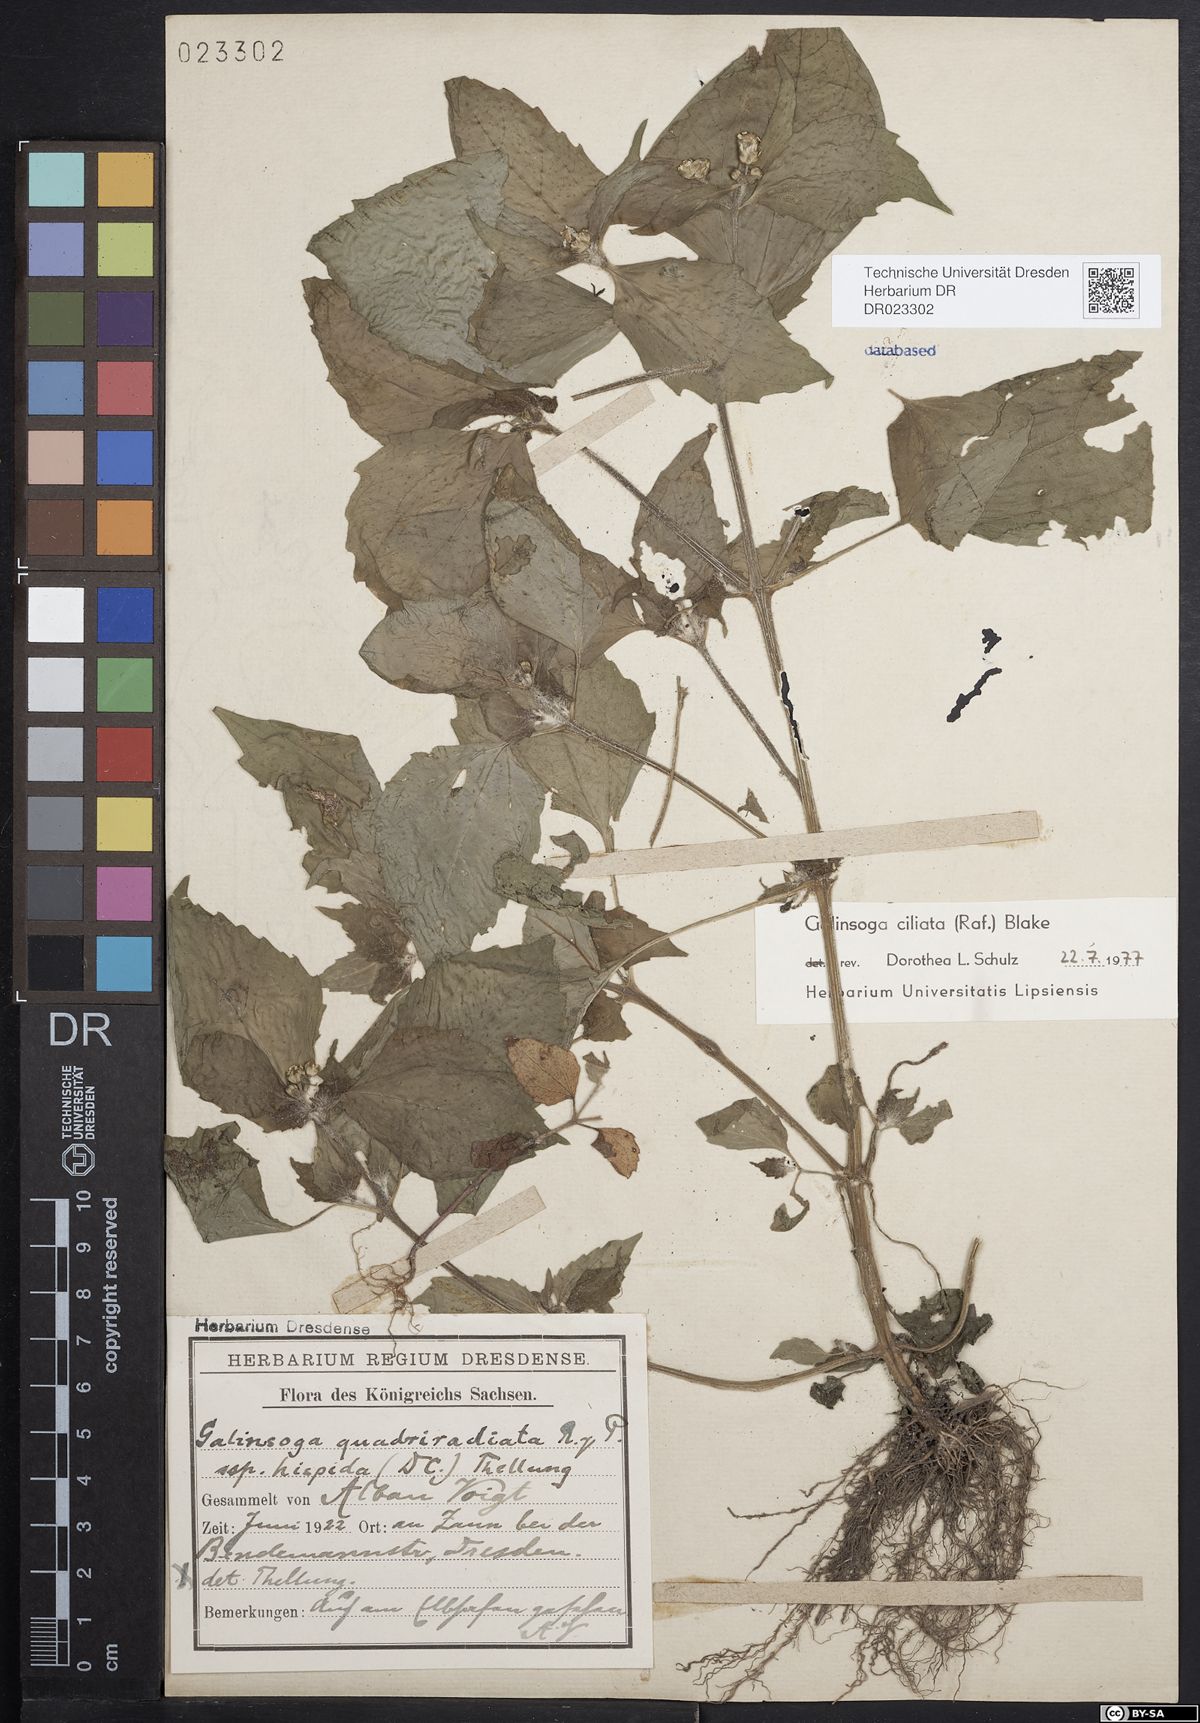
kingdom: Plantae
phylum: Tracheophyta
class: Magnoliopsida
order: Asterales
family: Asteraceae
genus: Galinsoga
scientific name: Galinsoga quadriradiata
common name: Shaggy soldier
